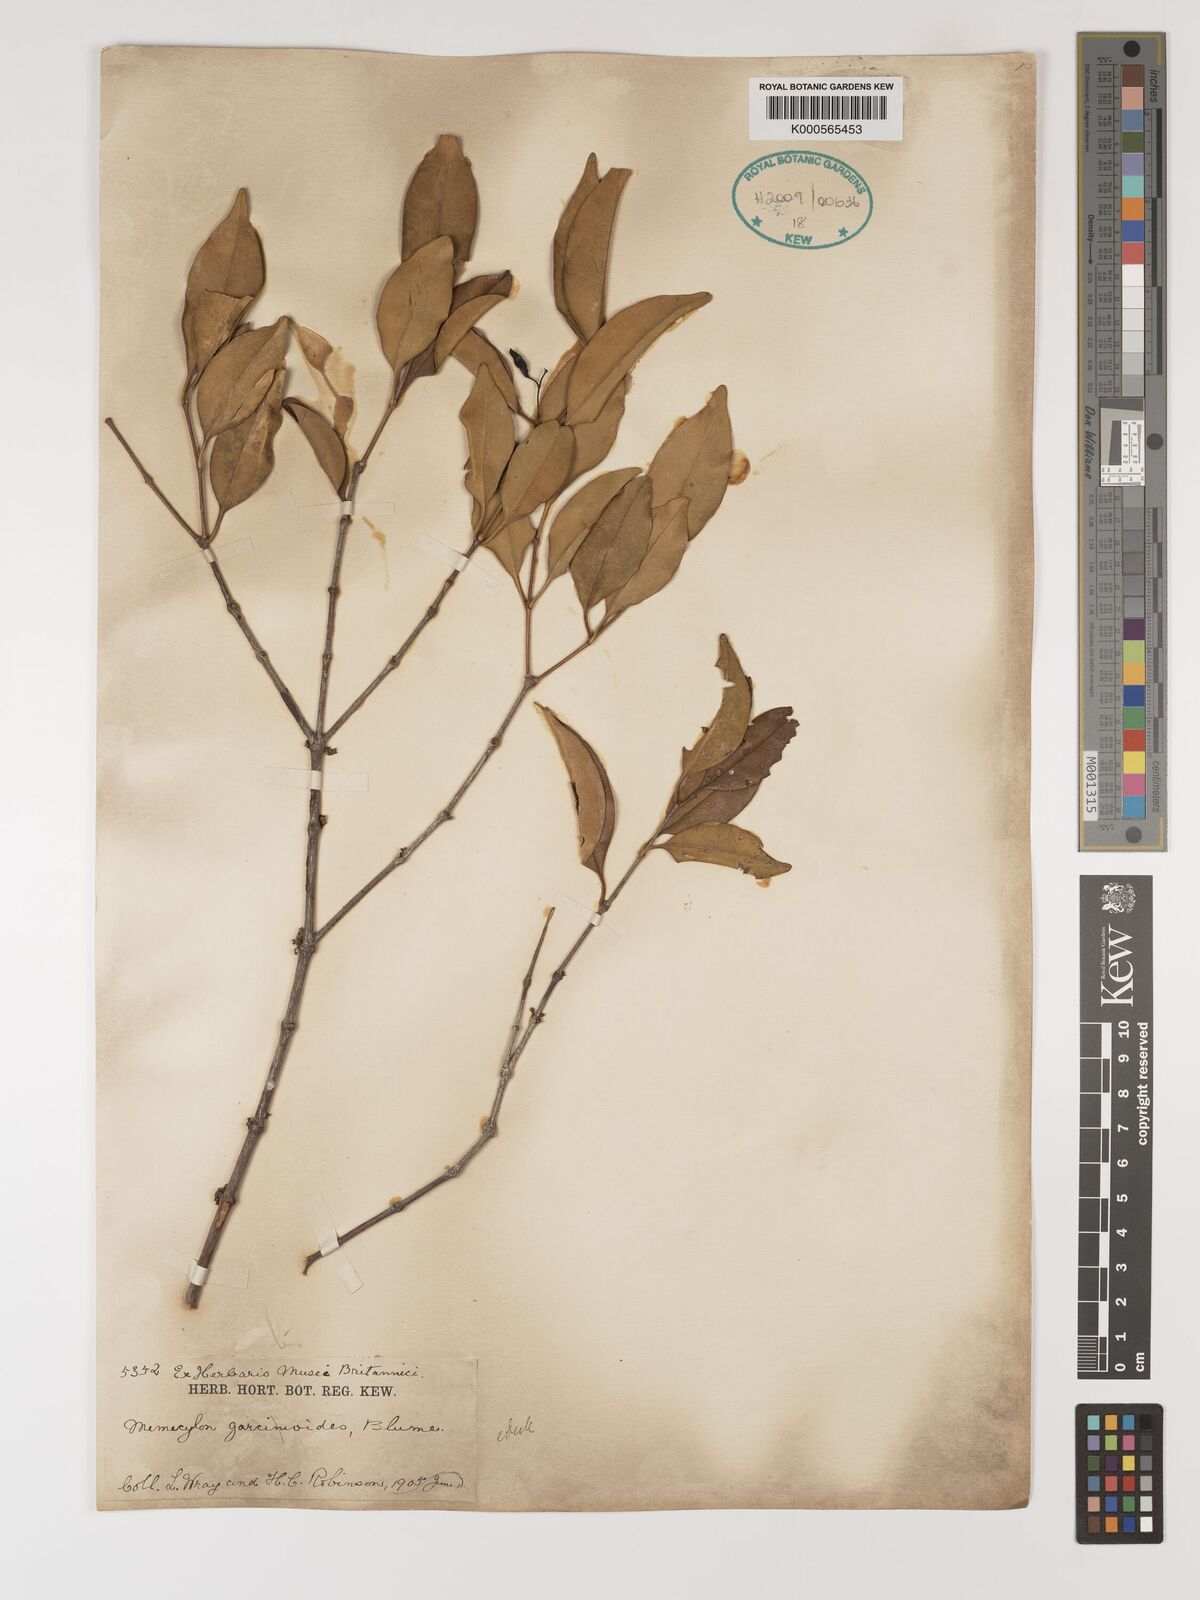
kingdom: Plantae
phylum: Tracheophyta
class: Magnoliopsida
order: Myrtales
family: Melastomataceae
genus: Memecylon
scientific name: Memecylon garcinioides
